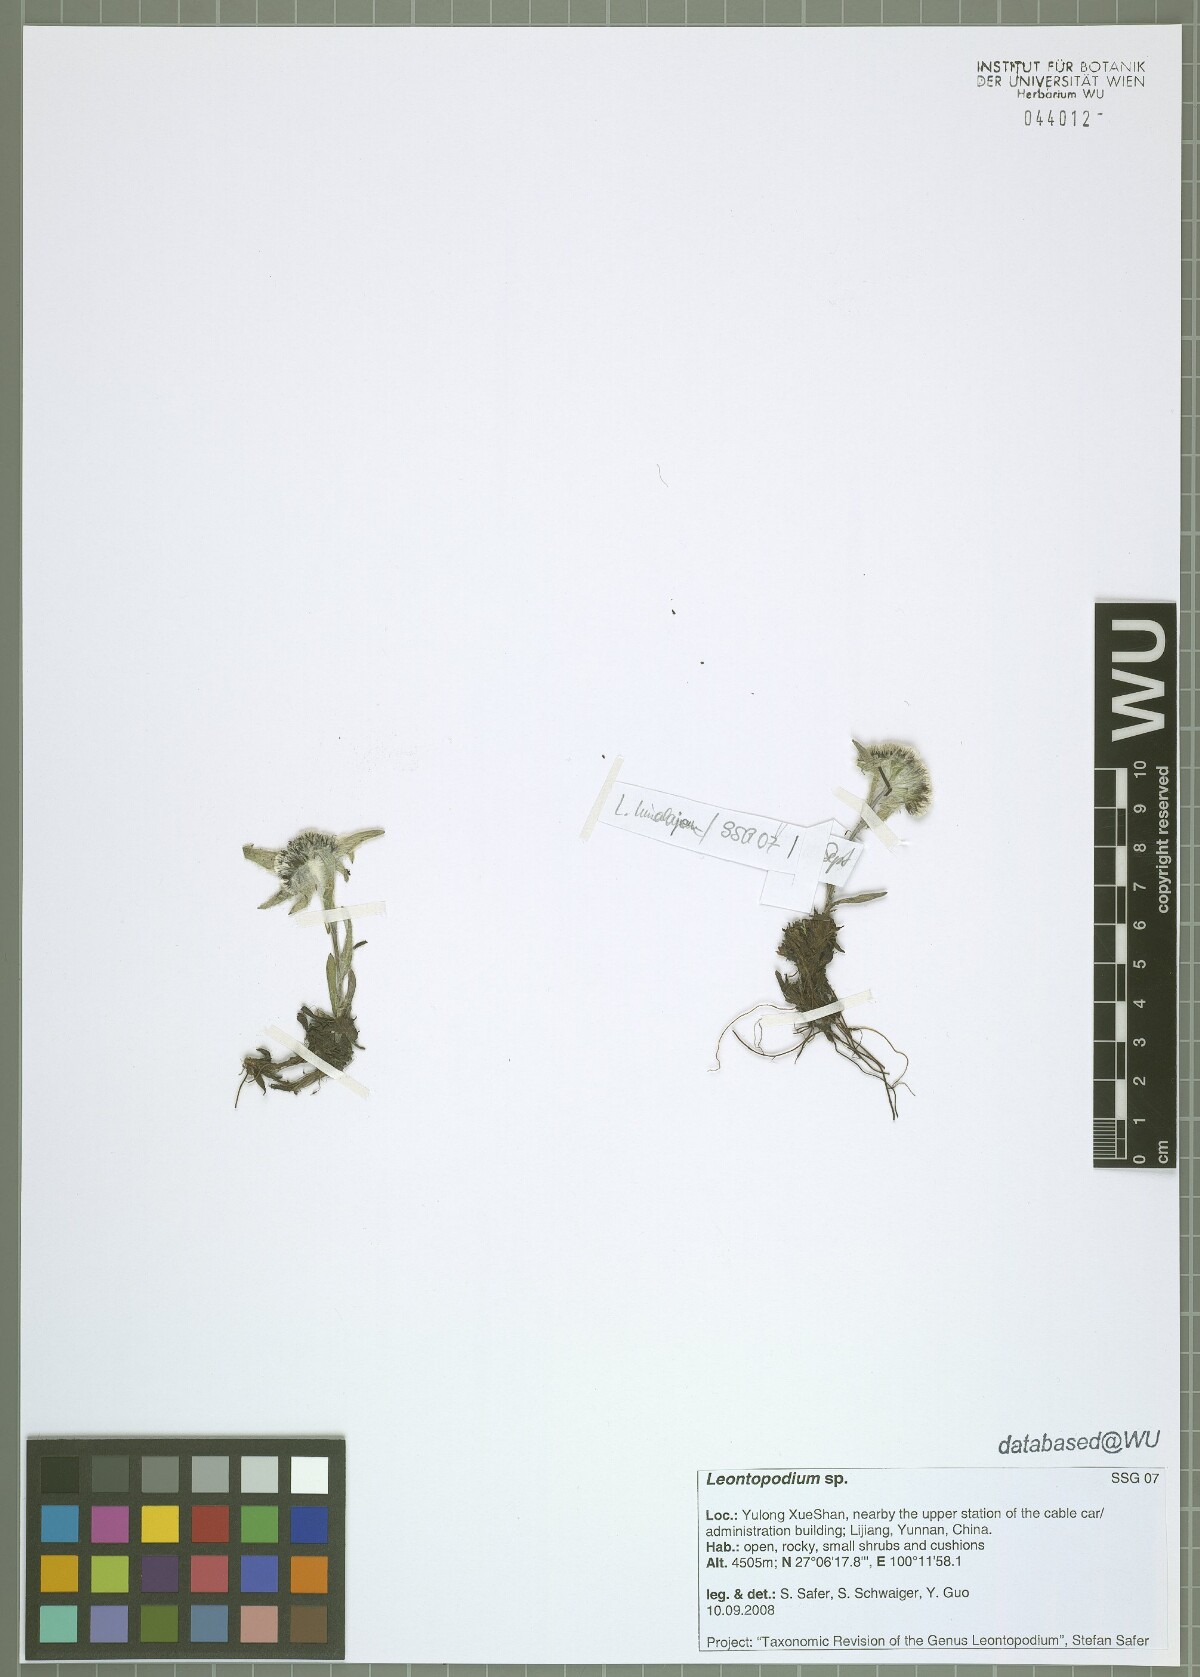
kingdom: Plantae
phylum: Tracheophyta
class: Magnoliopsida
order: Asterales
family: Asteraceae
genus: Leontopodium
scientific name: Leontopodium
